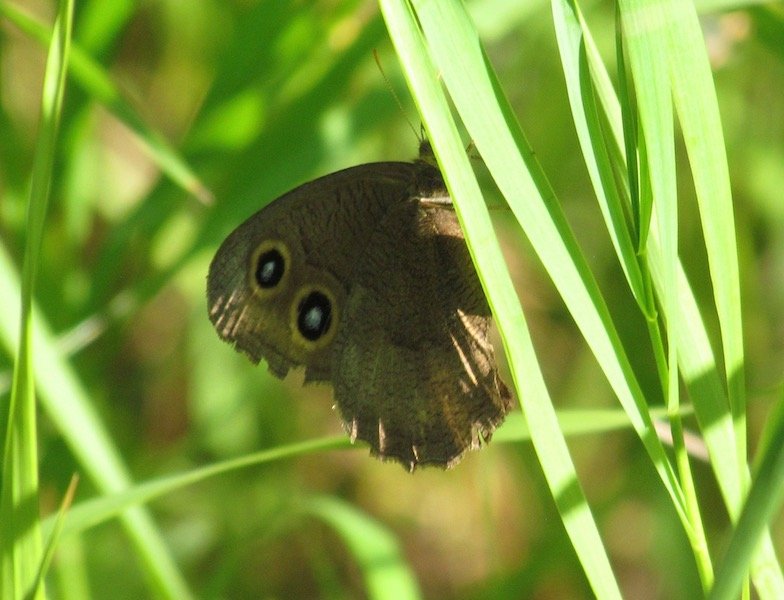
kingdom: Animalia
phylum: Arthropoda
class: Insecta
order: Lepidoptera
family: Nymphalidae
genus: Cercyonis
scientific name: Cercyonis pegala
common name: Common Wood-Nymph
